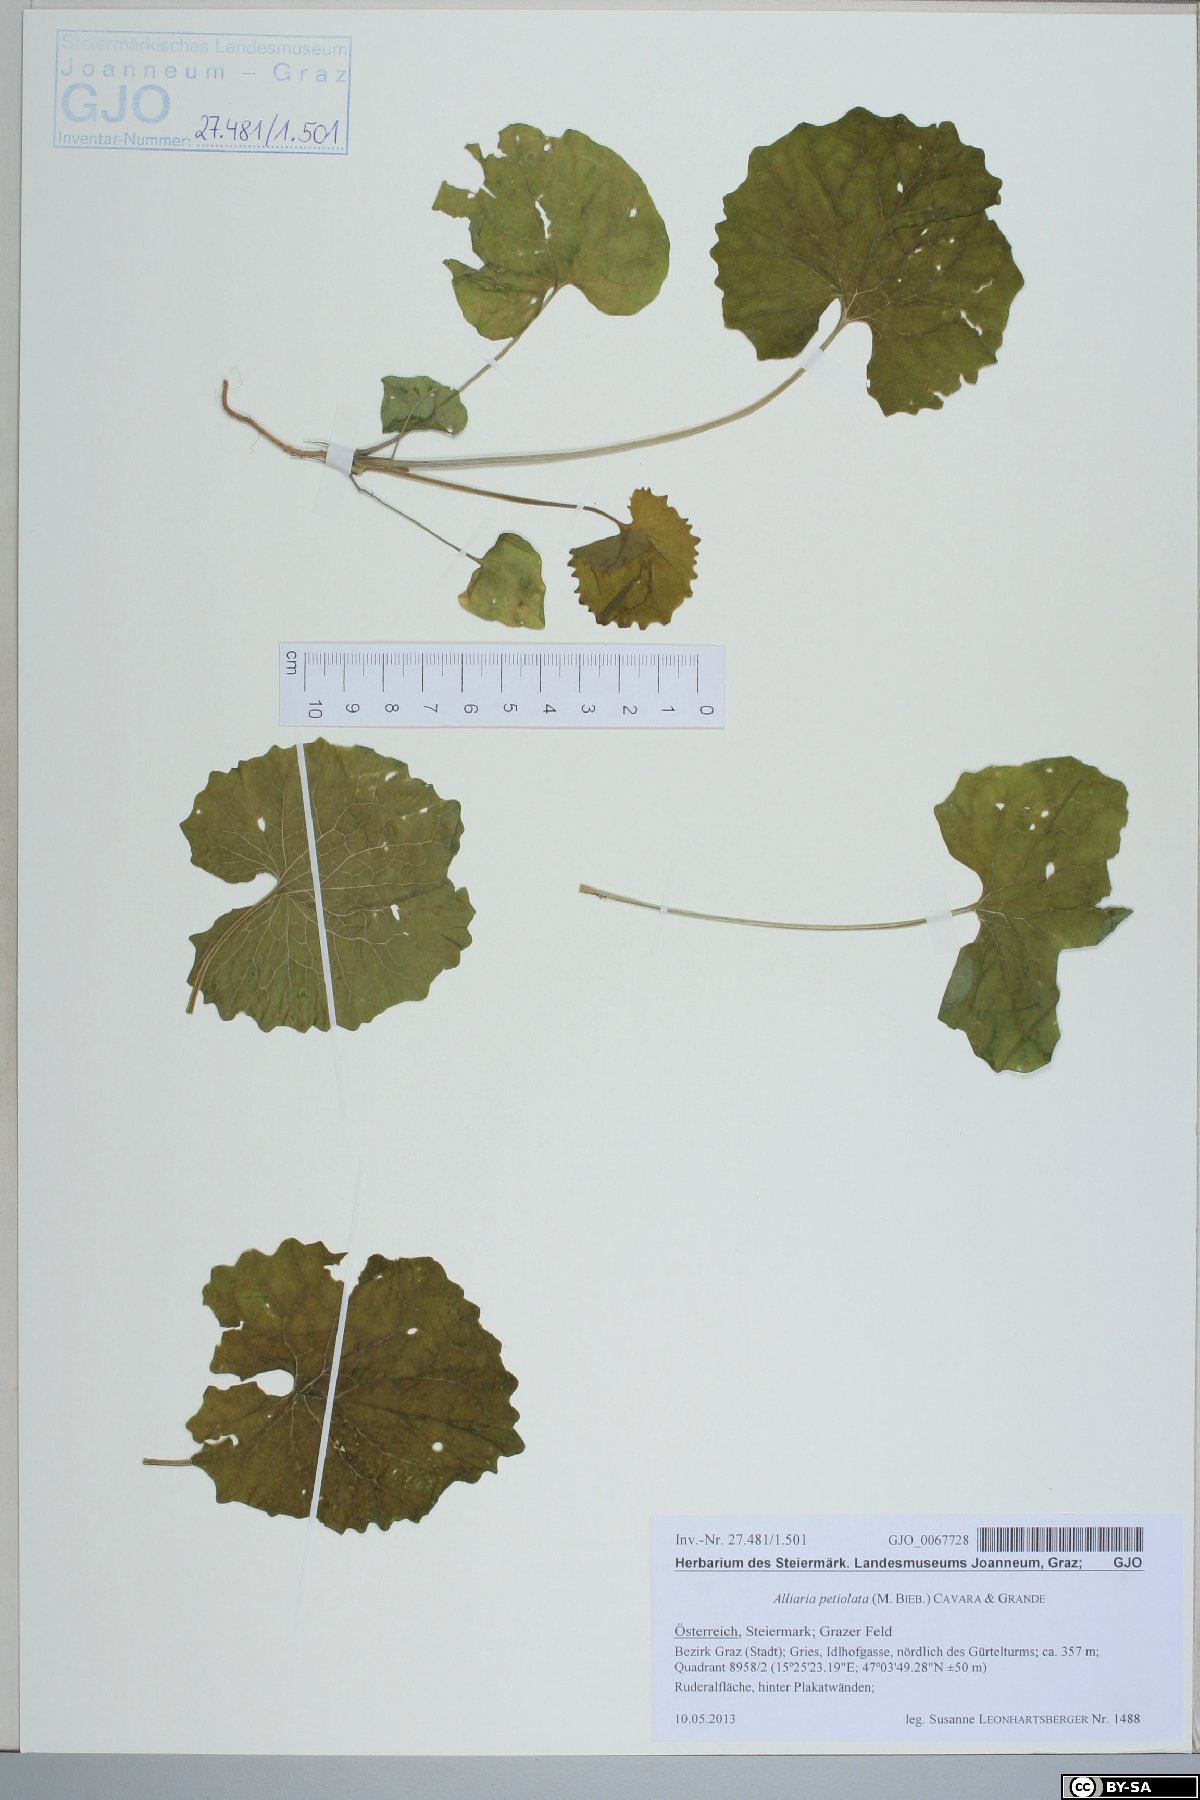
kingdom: Plantae
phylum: Tracheophyta
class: Magnoliopsida
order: Brassicales
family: Brassicaceae
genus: Alliaria
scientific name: Alliaria petiolata
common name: Garlic mustard
